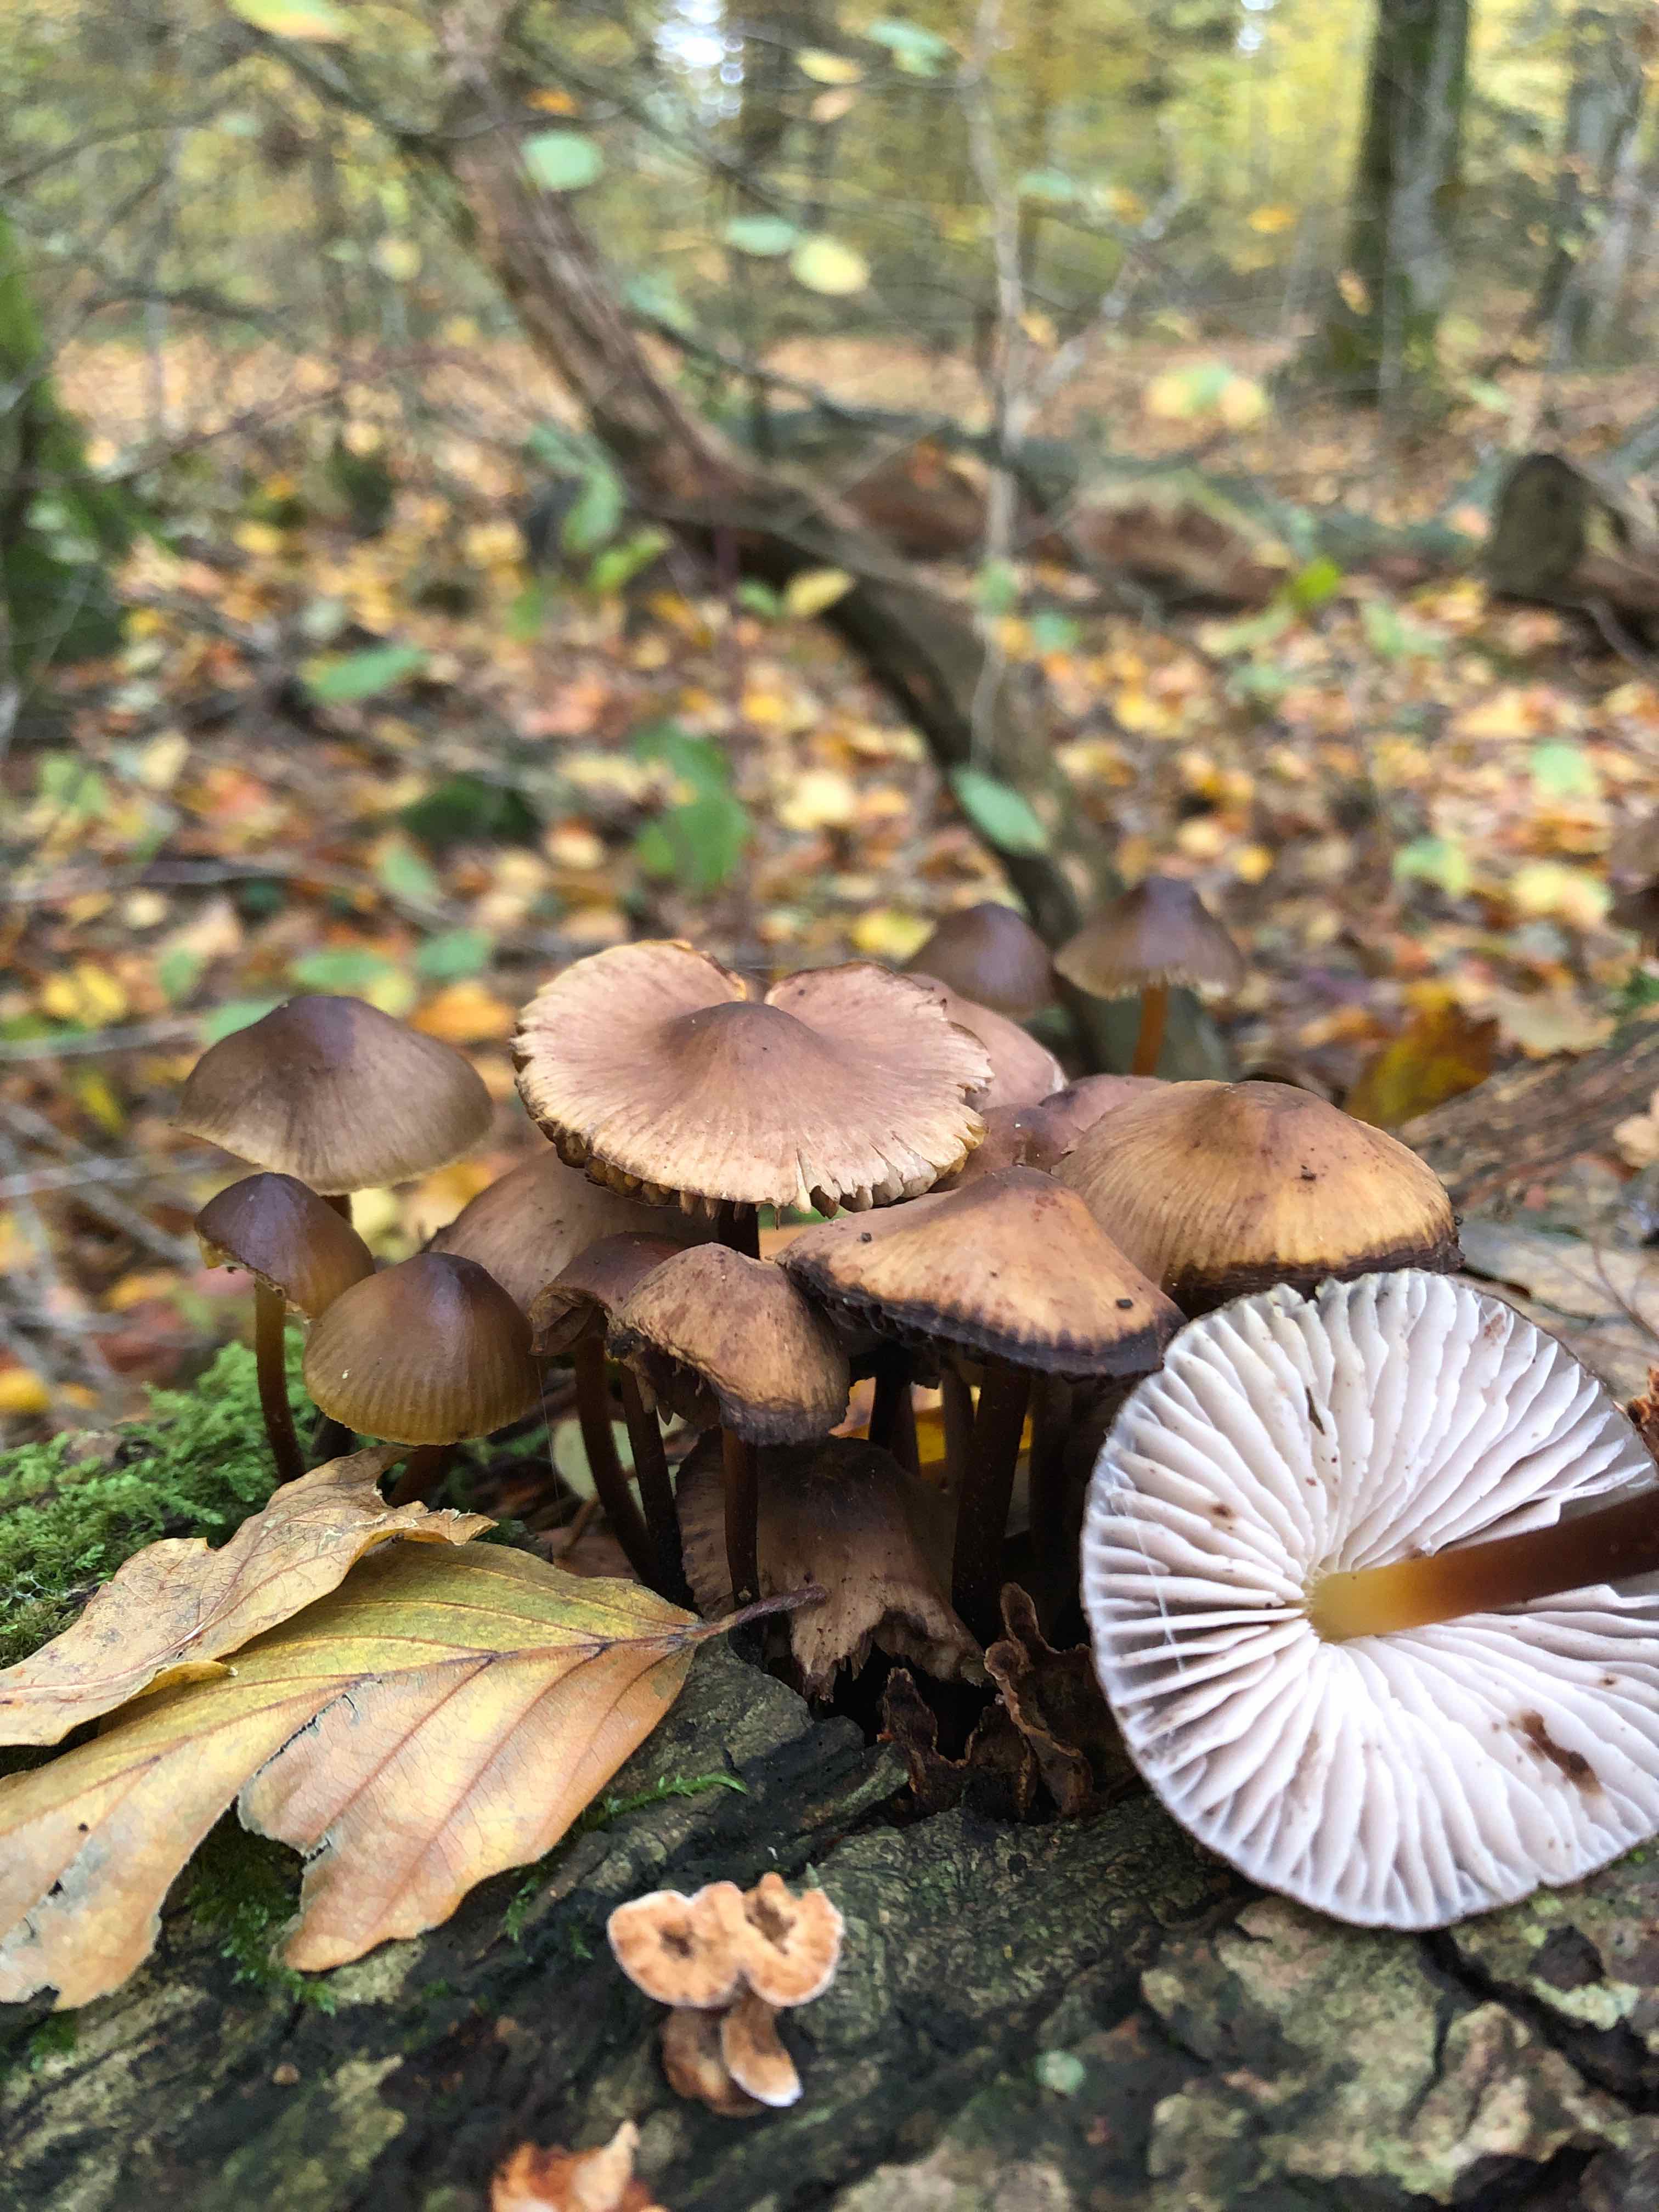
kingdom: Fungi
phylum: Basidiomycota
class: Agaricomycetes
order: Agaricales
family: Mycenaceae
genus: Mycena
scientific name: Mycena inclinata
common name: nikkende huesvamp
